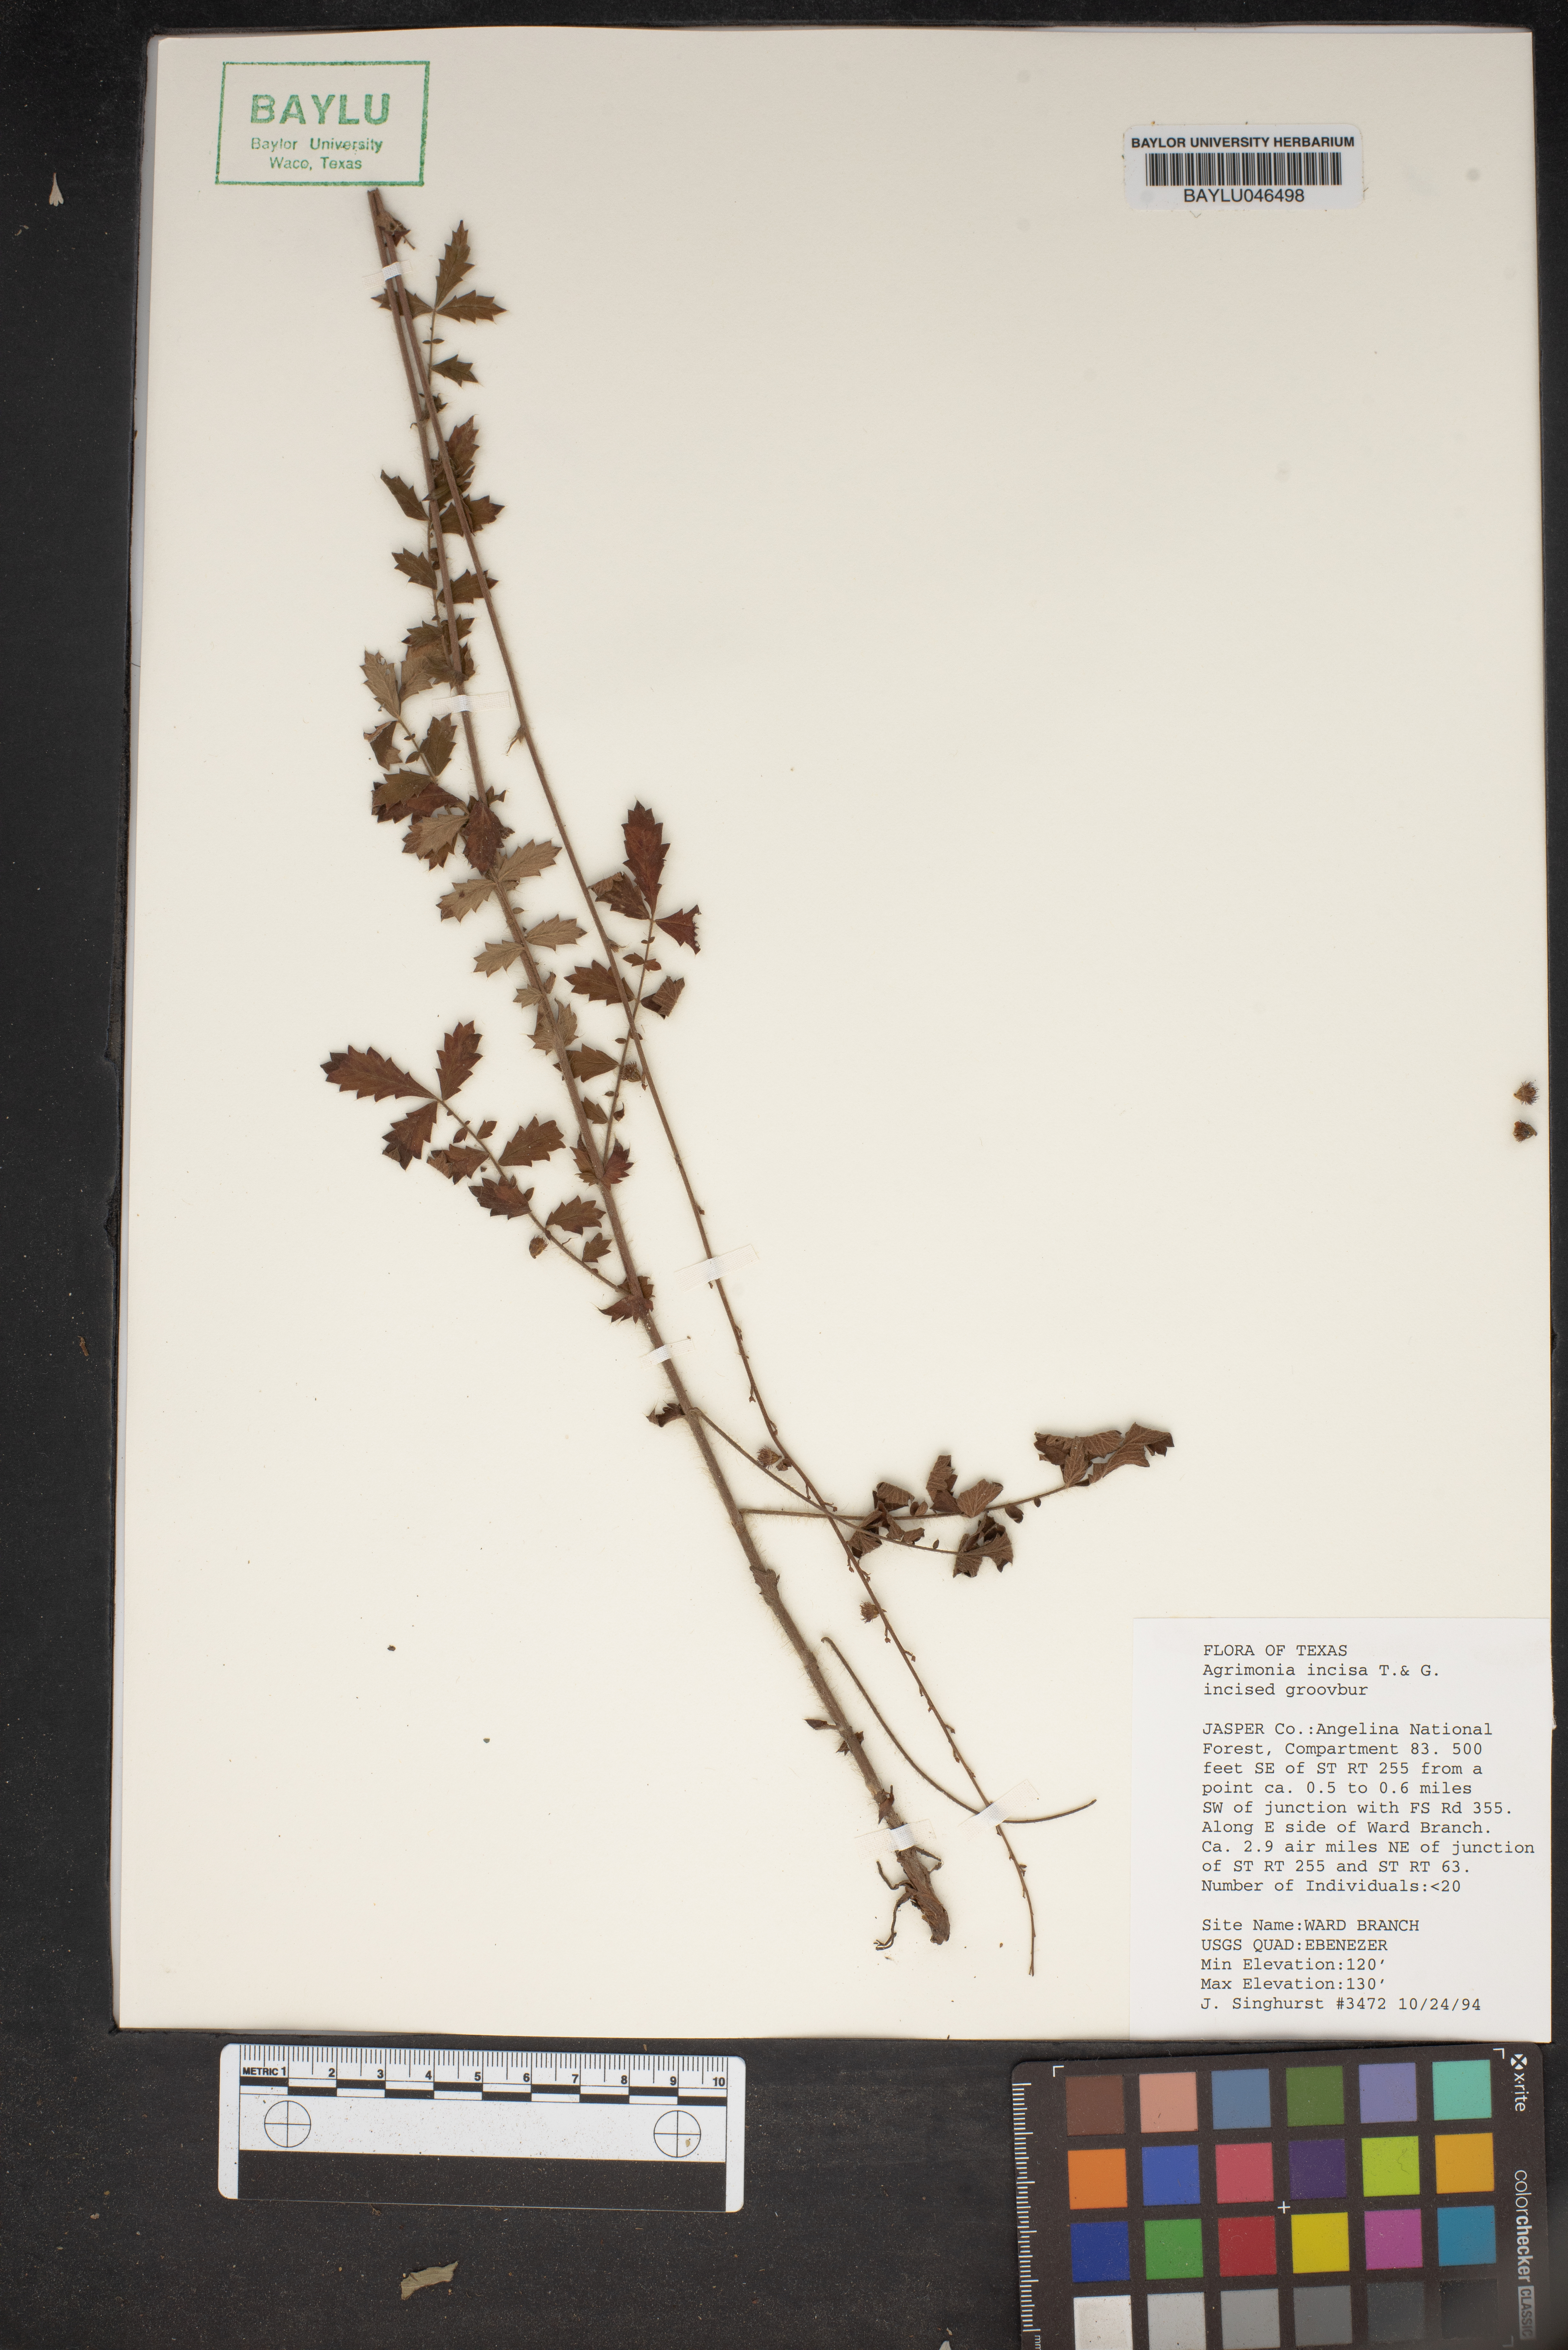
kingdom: Plantae
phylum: Tracheophyta
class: Magnoliopsida
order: Rosales
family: Rosaceae
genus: Agrimonia
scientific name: Agrimonia incisa
